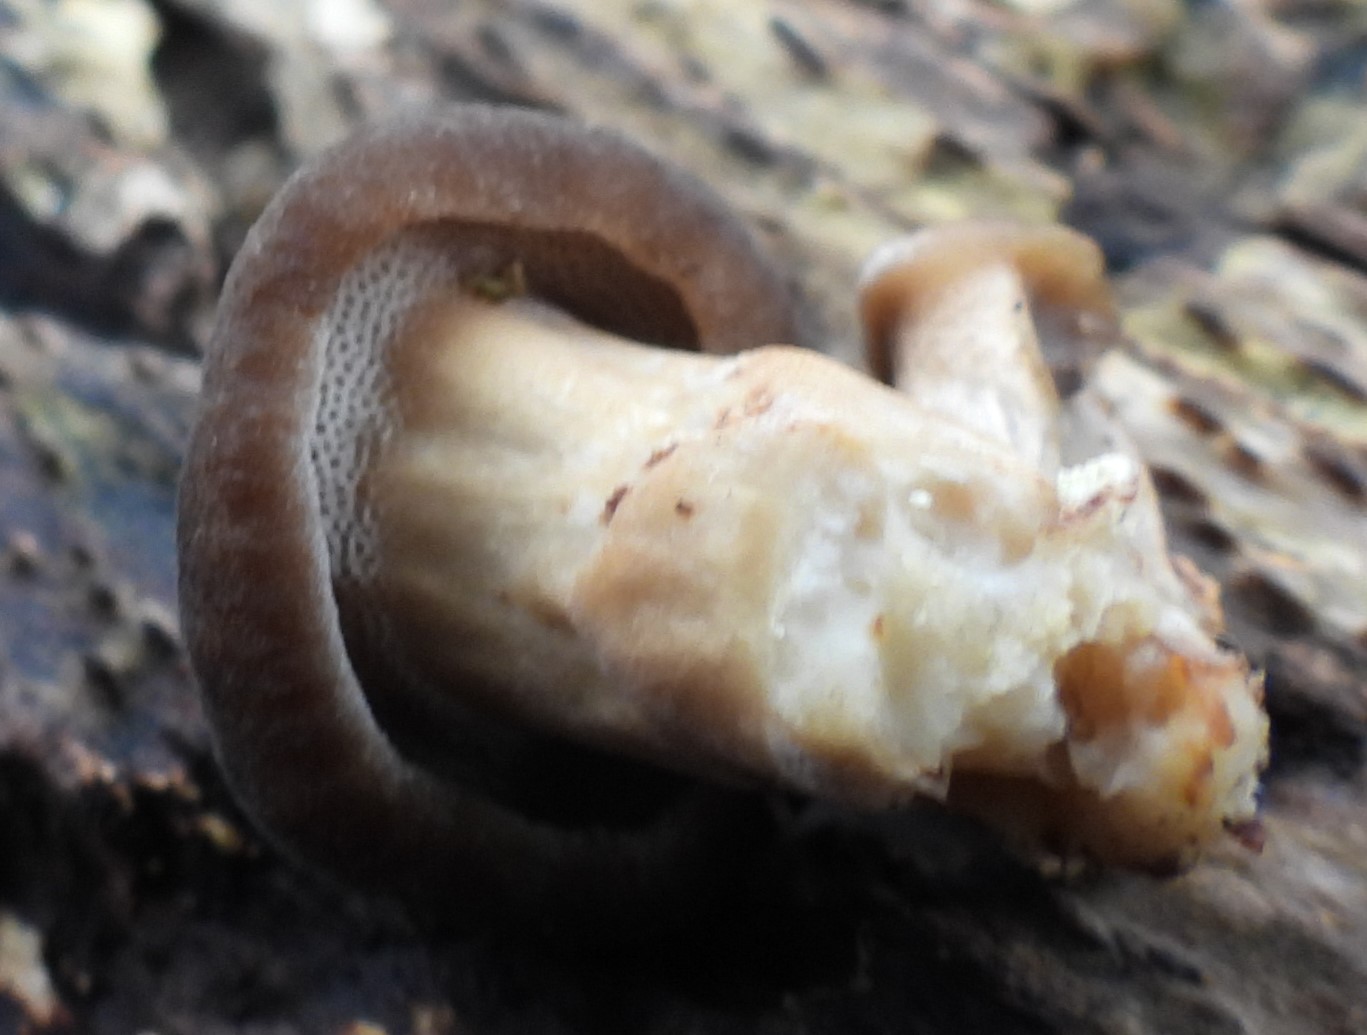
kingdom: Fungi
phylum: Basidiomycota
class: Agaricomycetes
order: Polyporales
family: Polyporaceae
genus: Lentinus
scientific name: Lentinus brumalis
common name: vinter-stilkporesvamp
